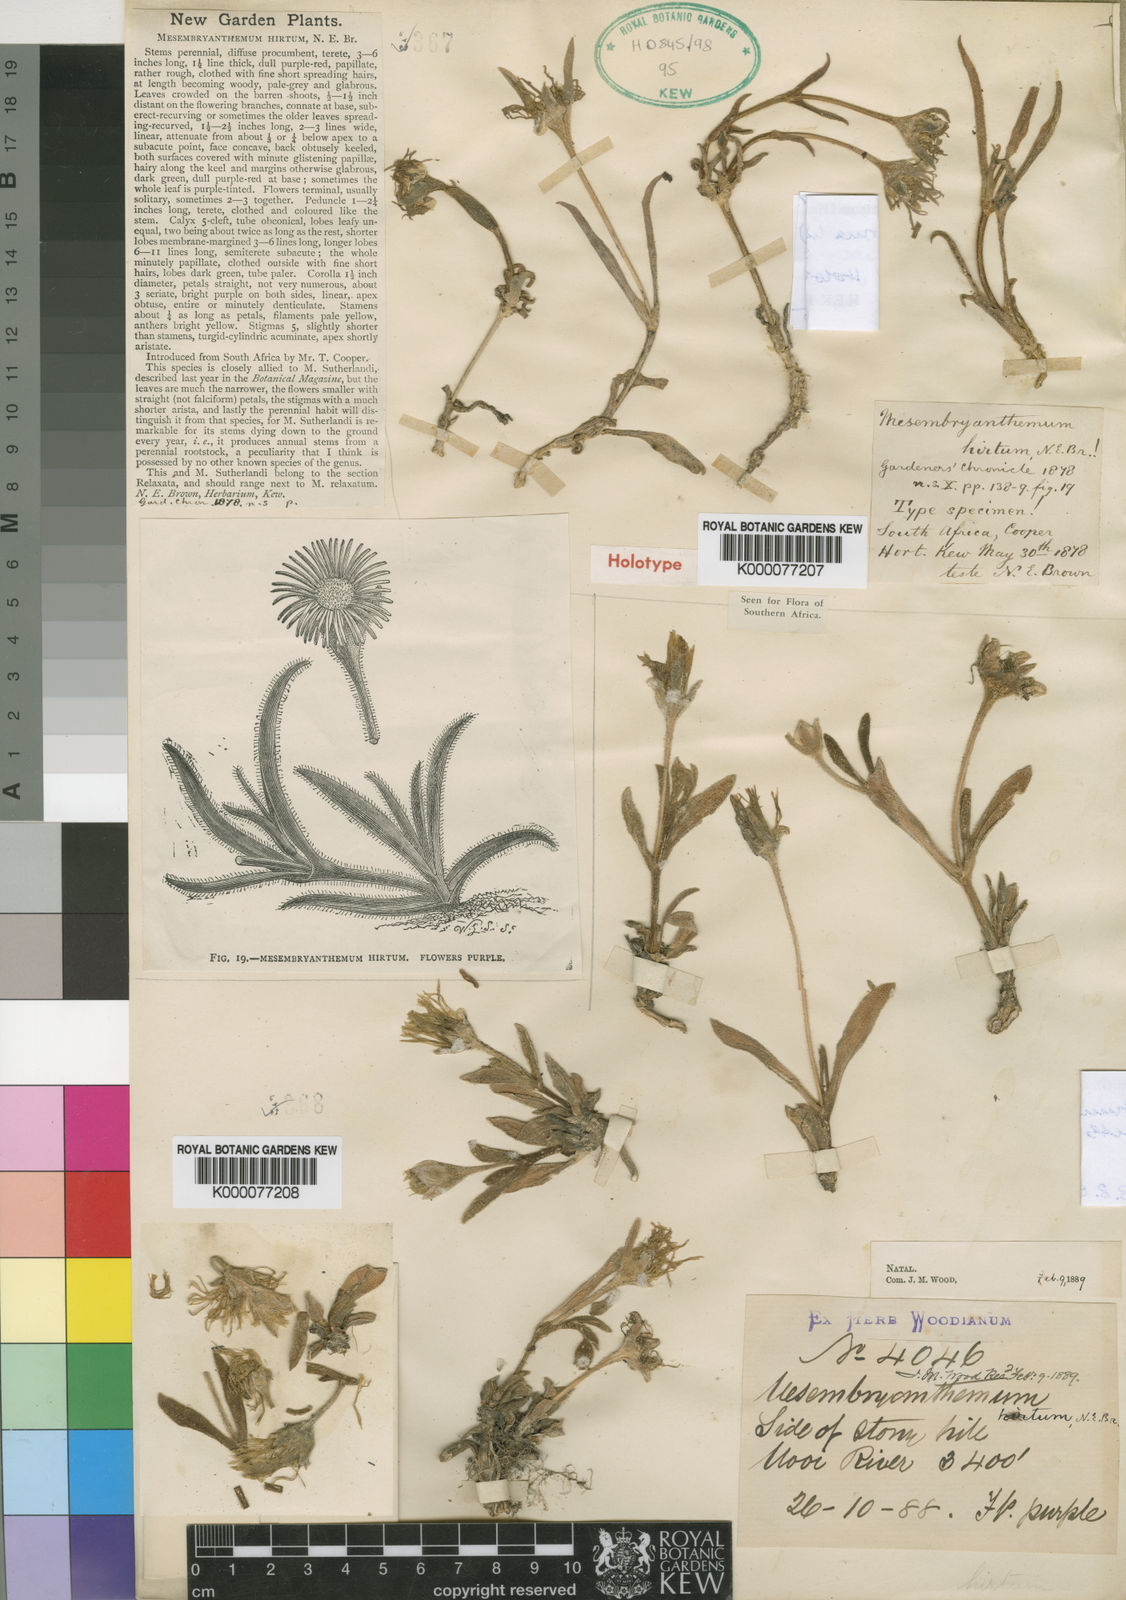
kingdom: Plantae
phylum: Tracheophyta
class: Magnoliopsida
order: Caryophyllales
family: Aizoaceae
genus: Delosperma
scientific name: Delosperma hirtum
